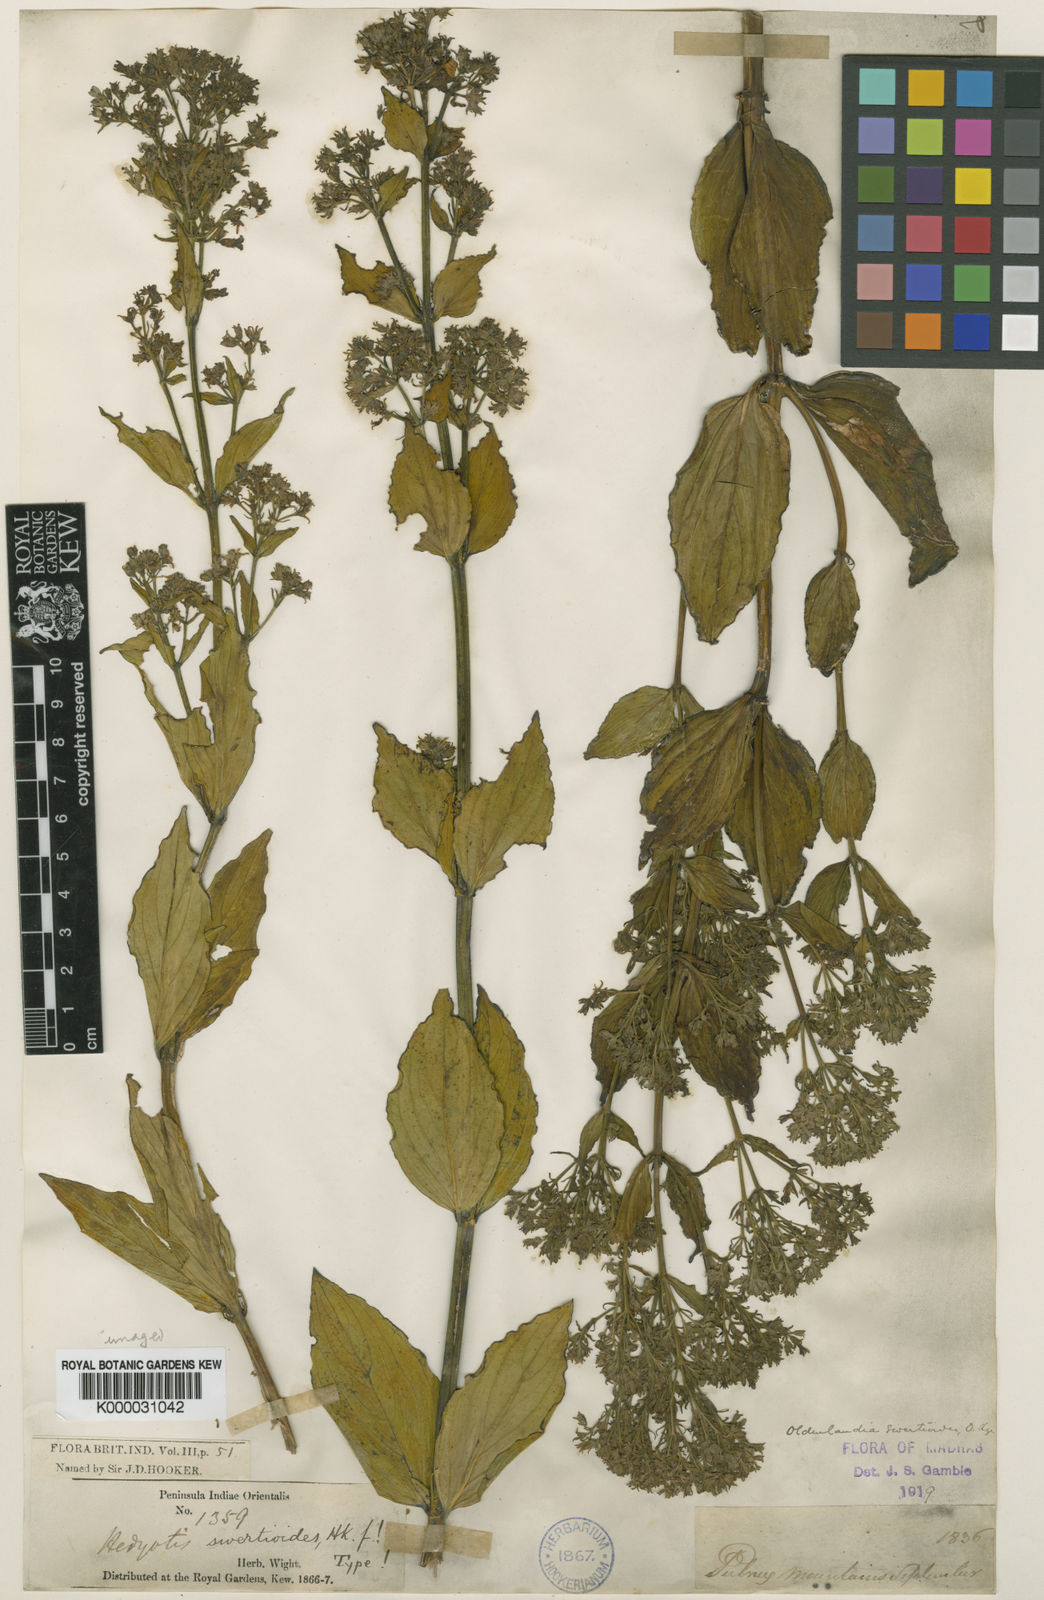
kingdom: Plantae
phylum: Tracheophyta
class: Magnoliopsida
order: Gentianales
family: Rubiaceae
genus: Hedyotis
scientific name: Hedyotis swertioides
